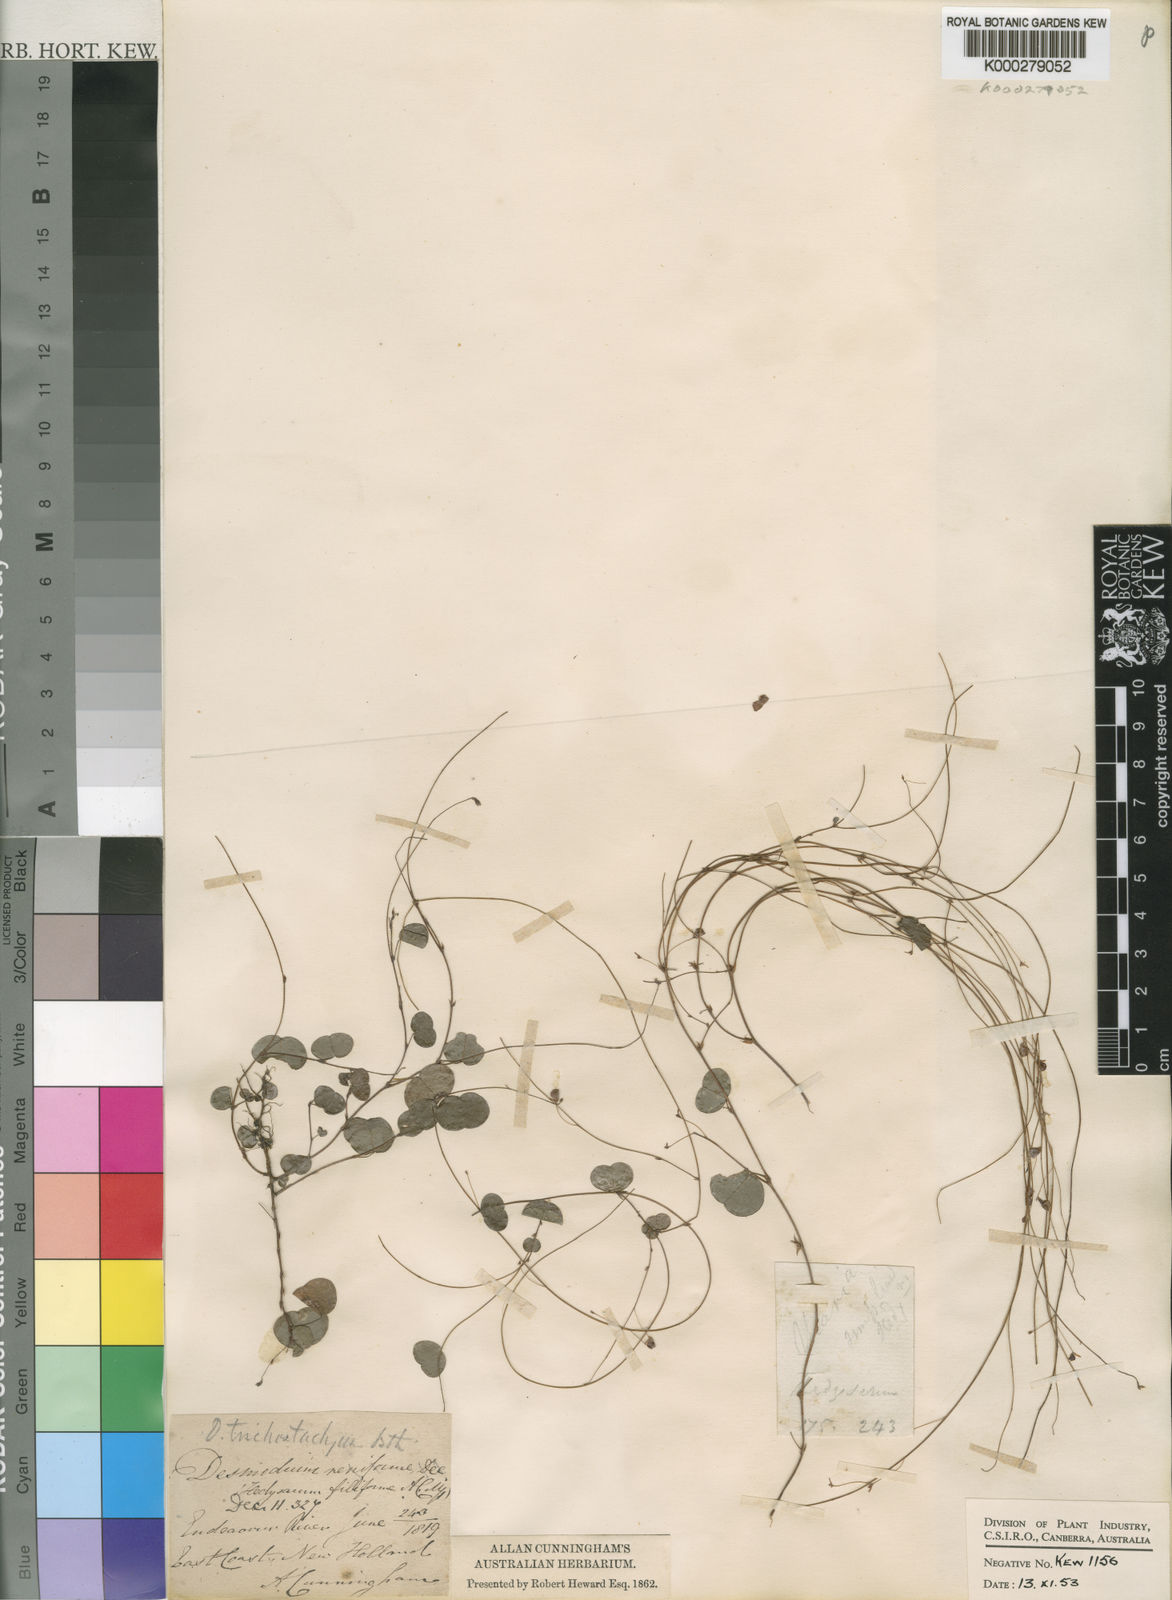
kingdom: Plantae
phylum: Tracheophyta
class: Magnoliopsida
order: Fabales
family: Fabaceae
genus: Grona
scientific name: Grona trichostachya
